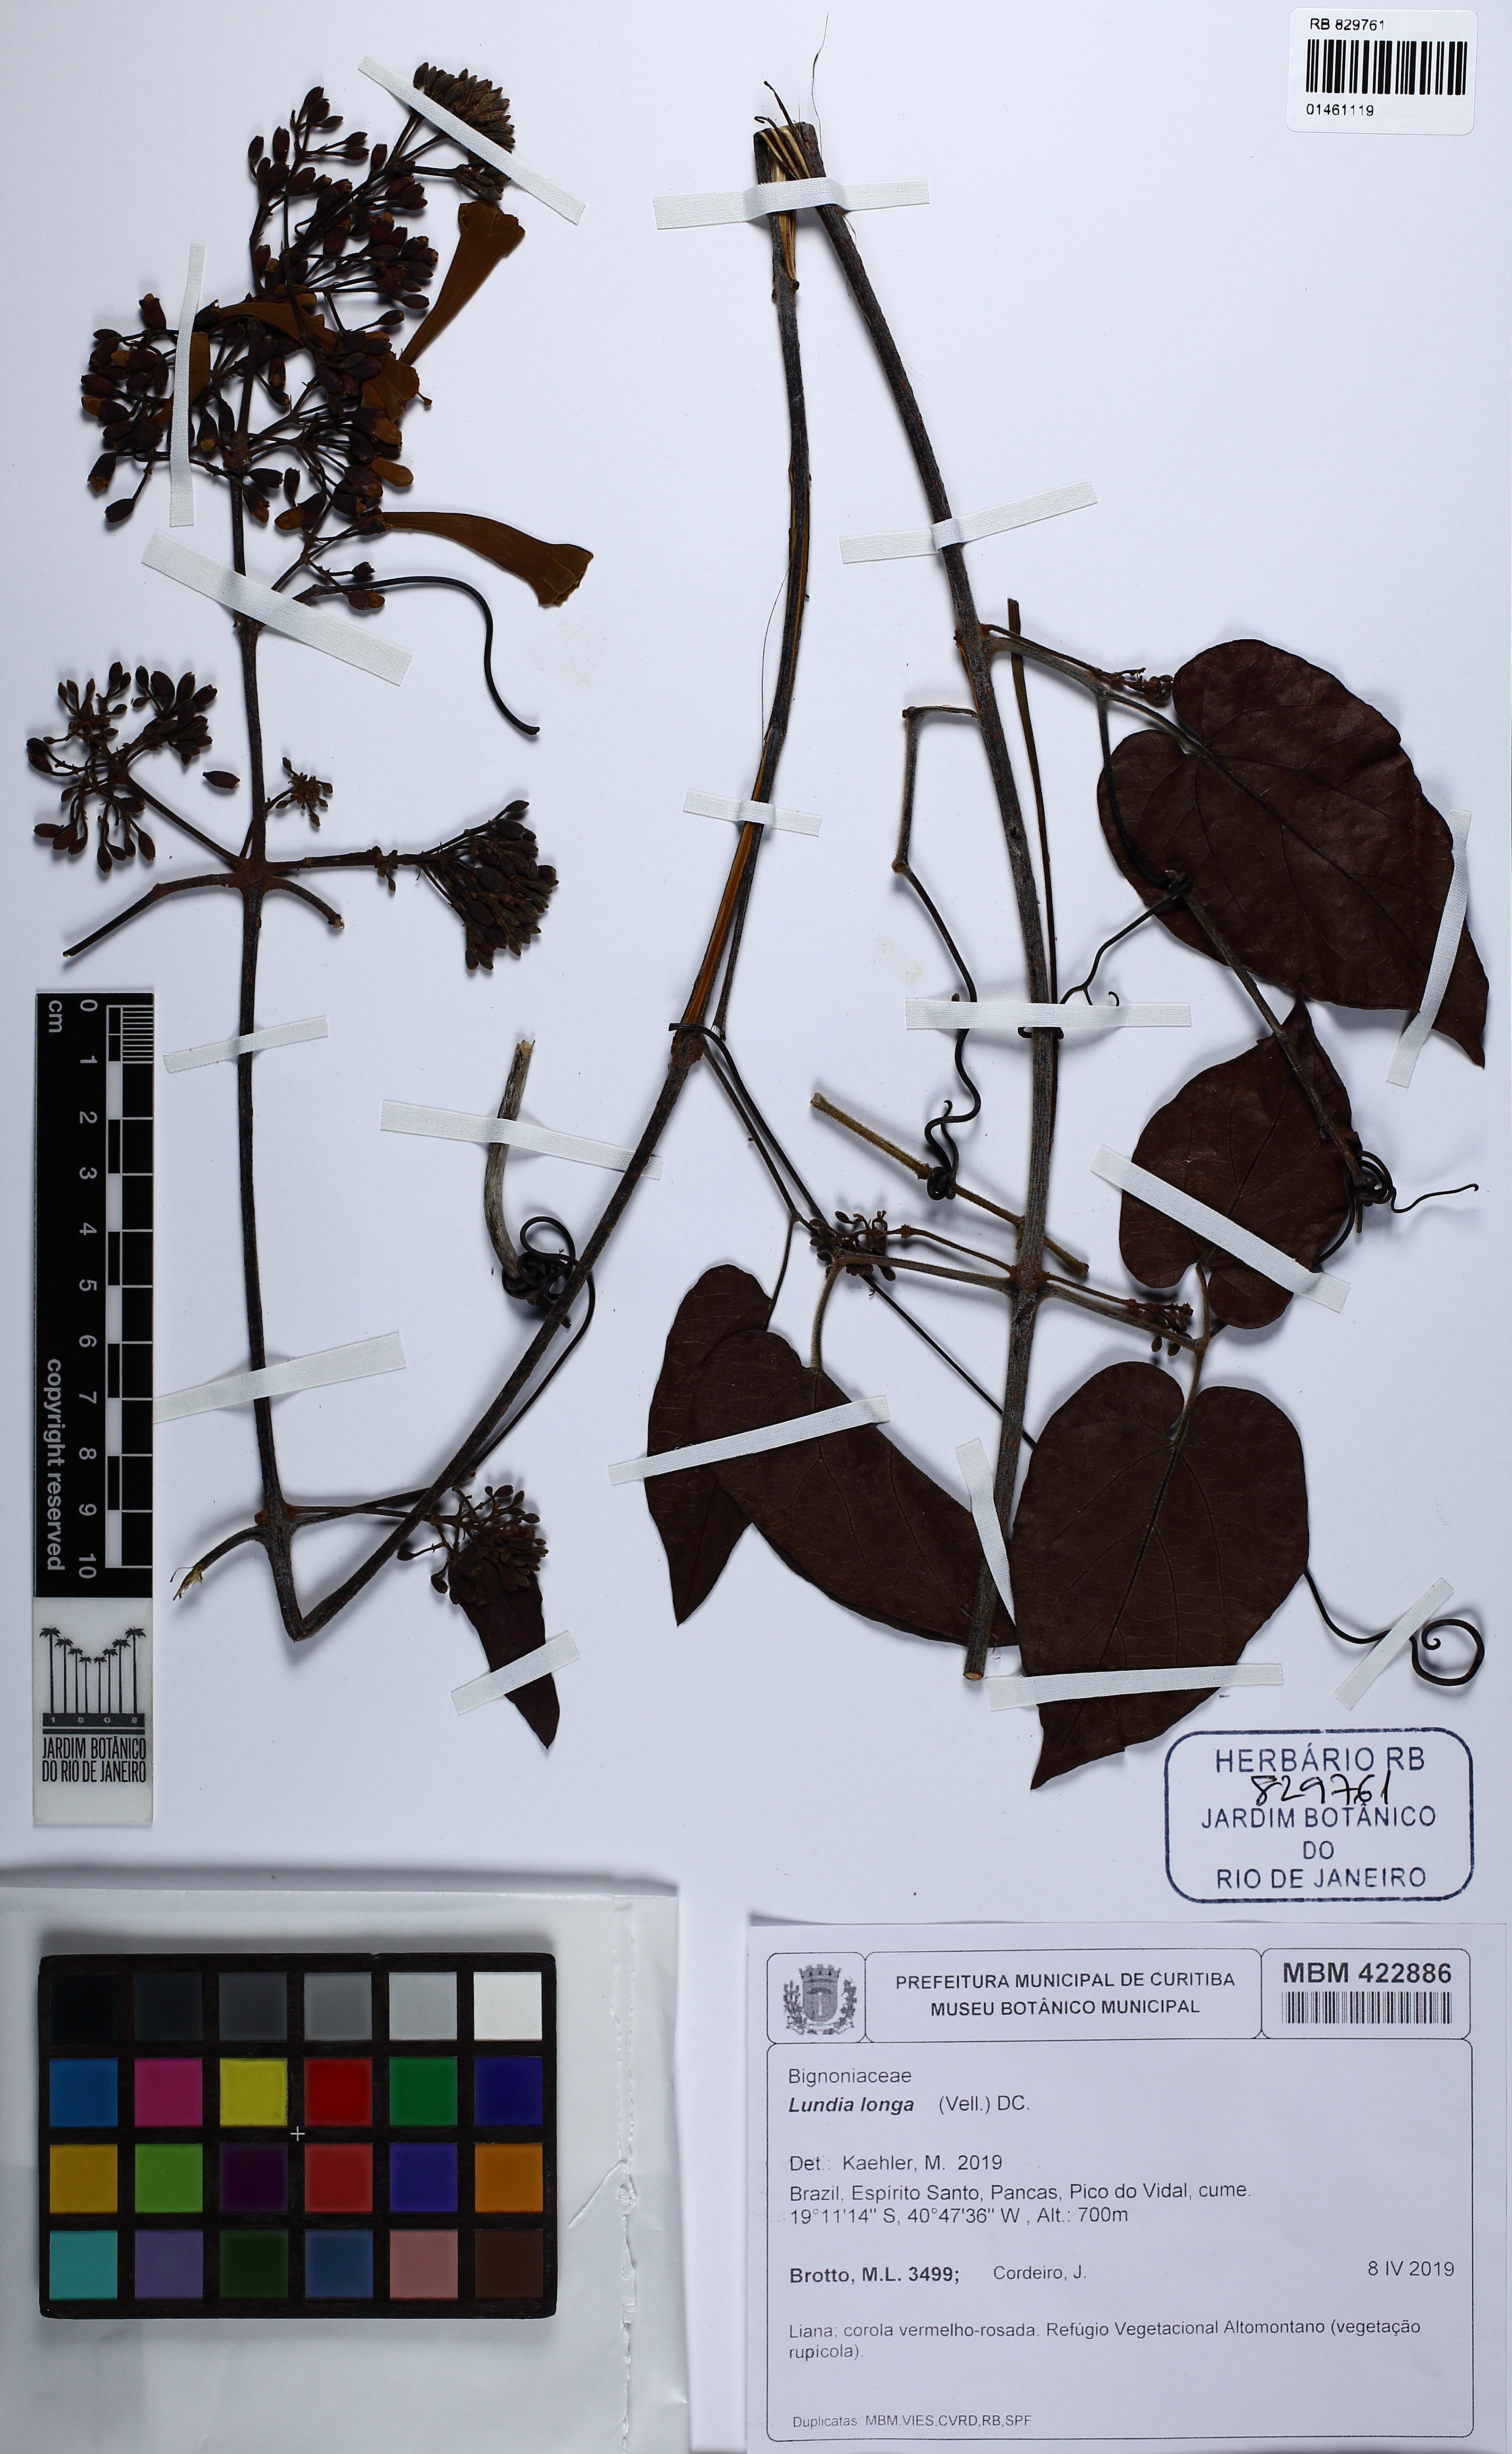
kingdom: Plantae
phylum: Tracheophyta
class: Magnoliopsida
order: Lamiales
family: Bignoniaceae
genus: Lundia
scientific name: Lundia longa
